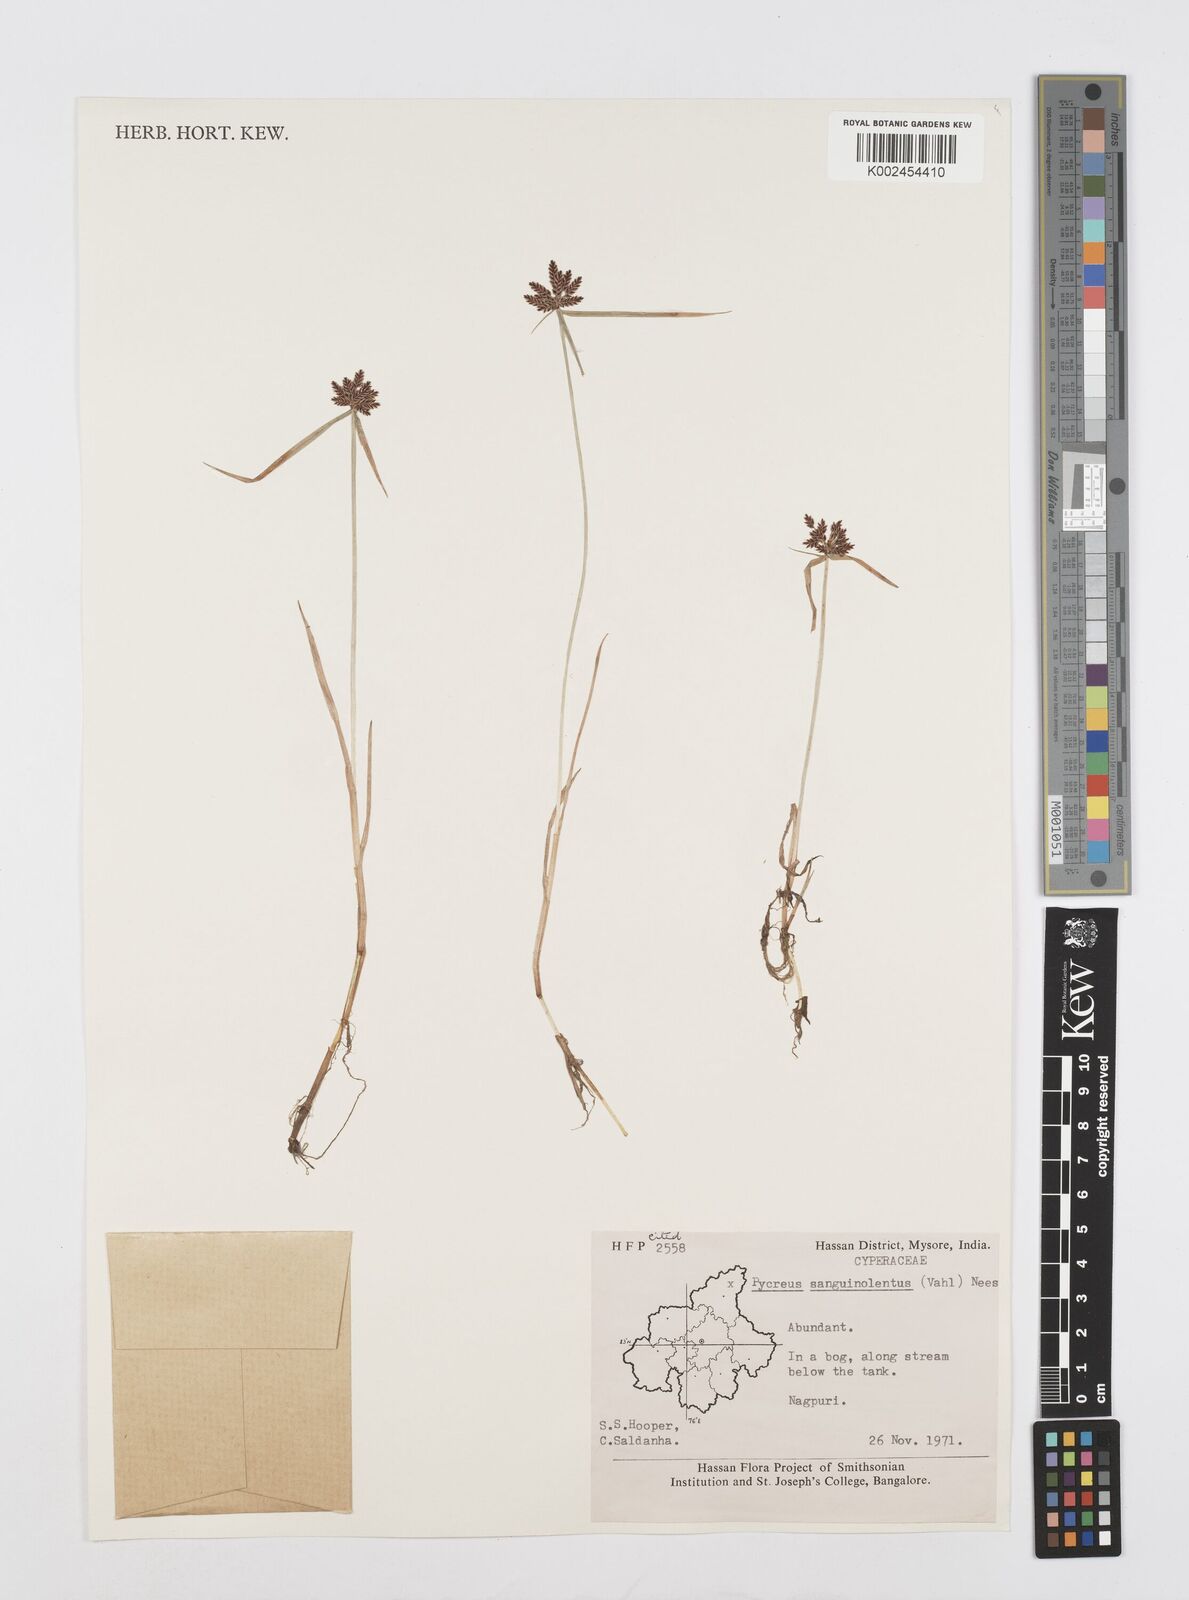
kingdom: Plantae
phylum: Tracheophyta
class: Liliopsida
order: Poales
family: Cyperaceae
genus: Cyperus
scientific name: Cyperus sanguinolentus
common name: Purpleglume flatsedge
